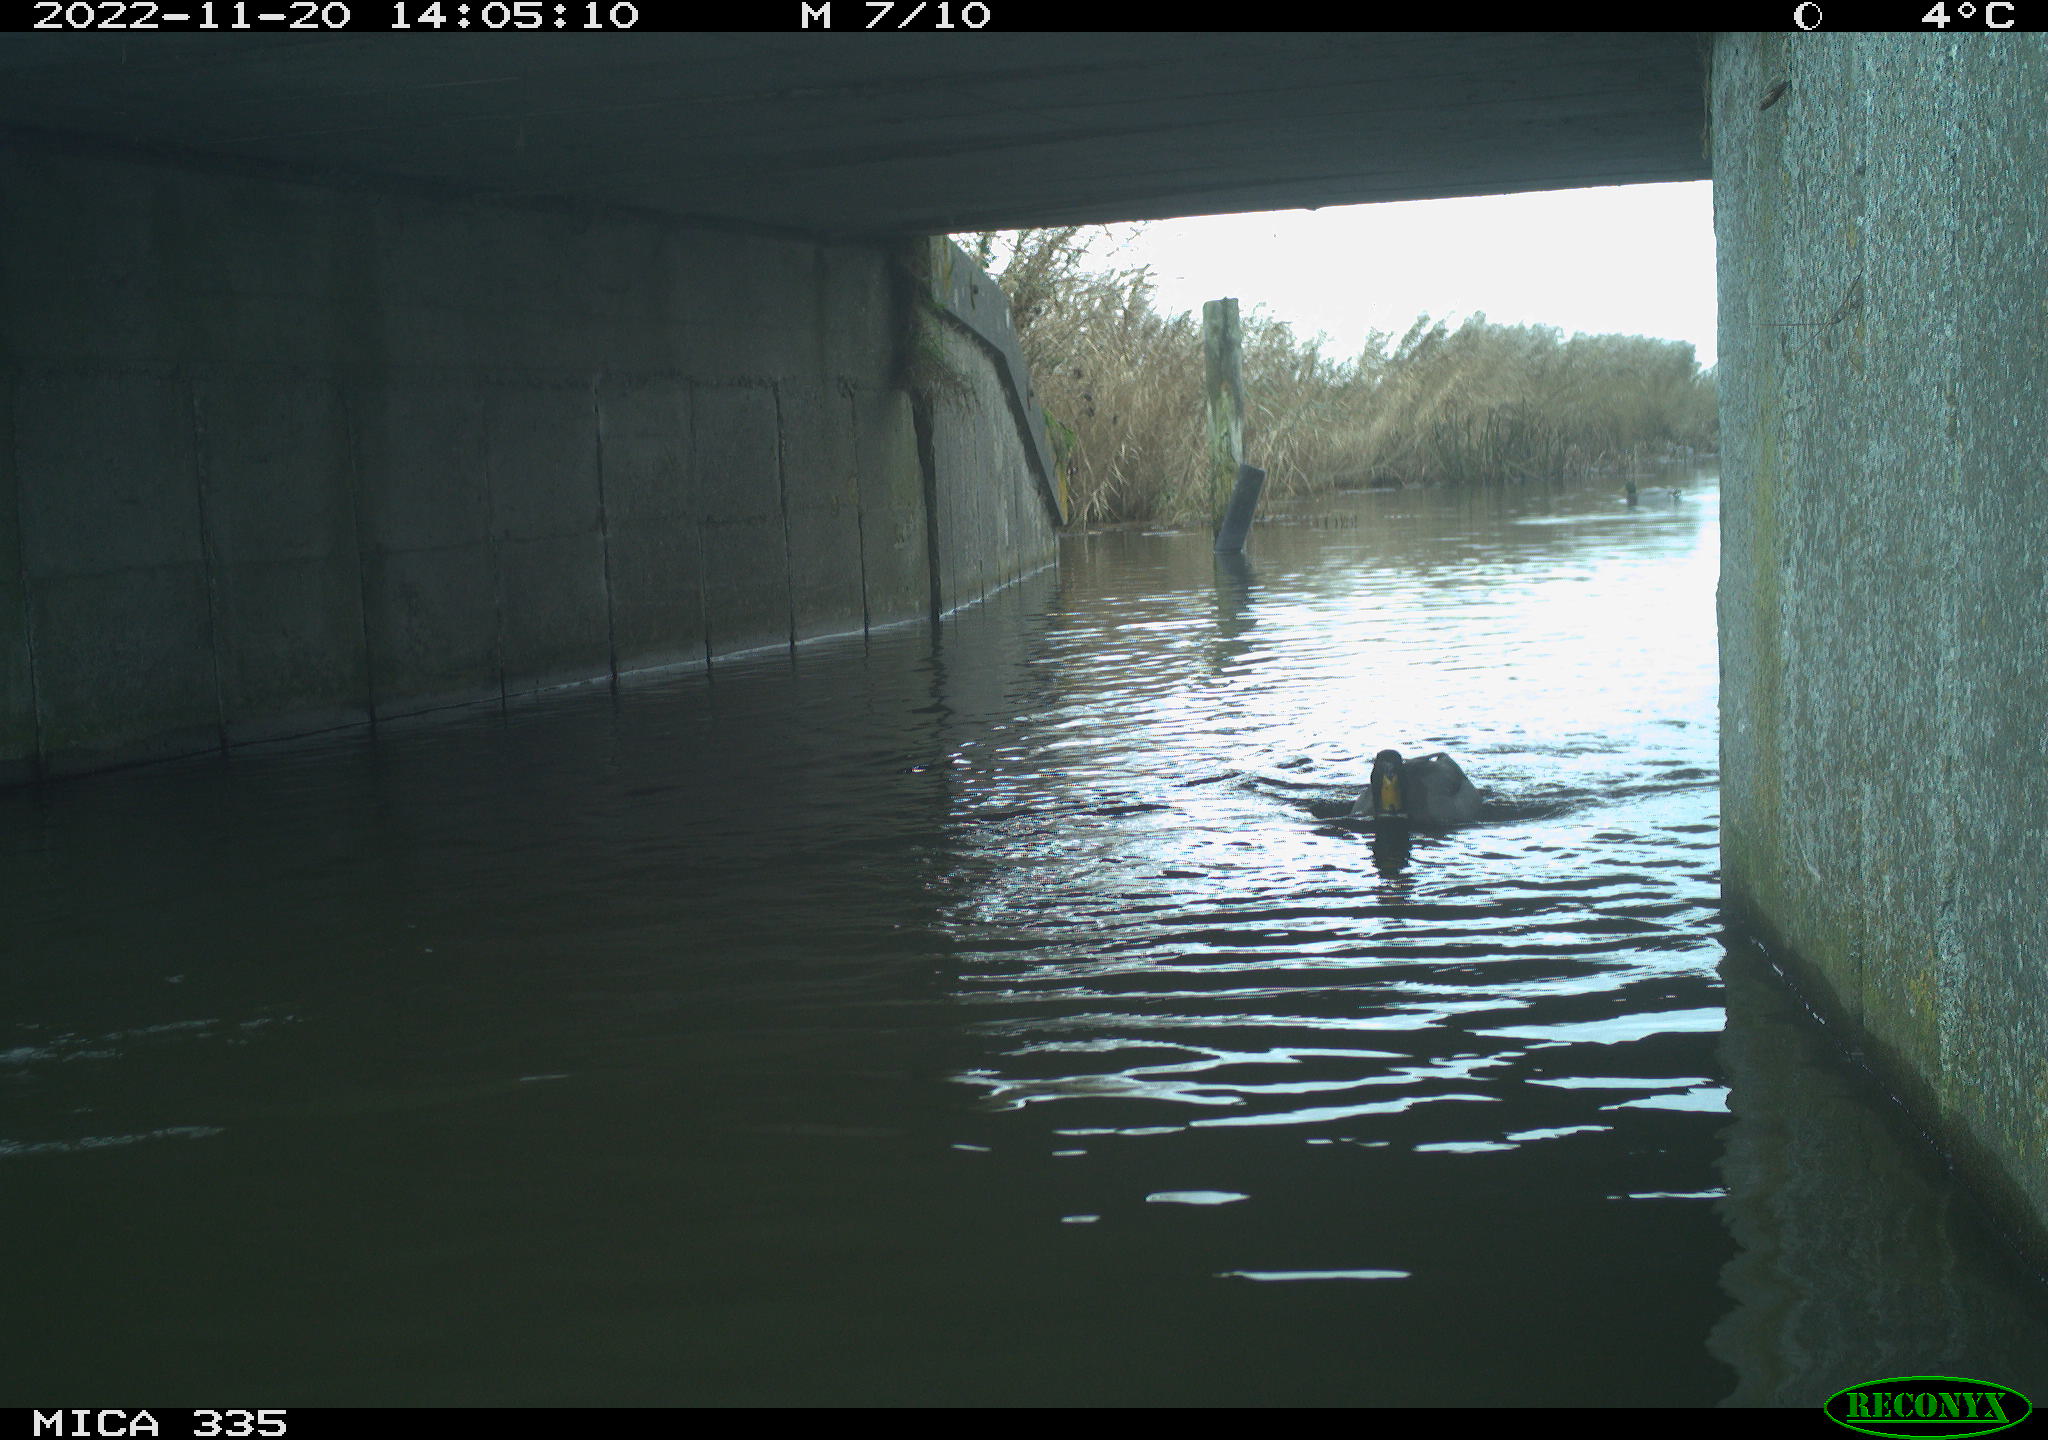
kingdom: Animalia
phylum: Chordata
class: Aves
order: Anseriformes
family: Anatidae
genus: Anas
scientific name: Anas platyrhynchos
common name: Mallard
